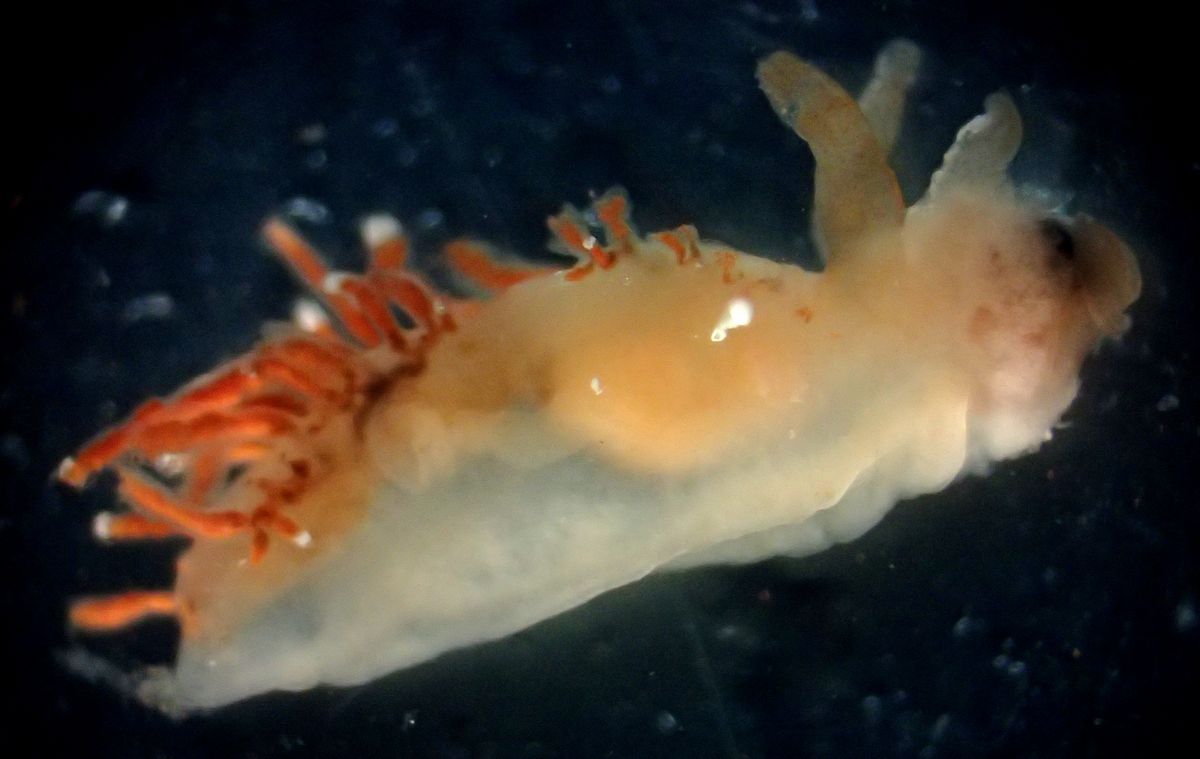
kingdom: Animalia
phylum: Mollusca
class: Gastropoda
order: Nudibranchia
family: Coryphellidae
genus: Coryphella
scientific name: Coryphella gracilis
